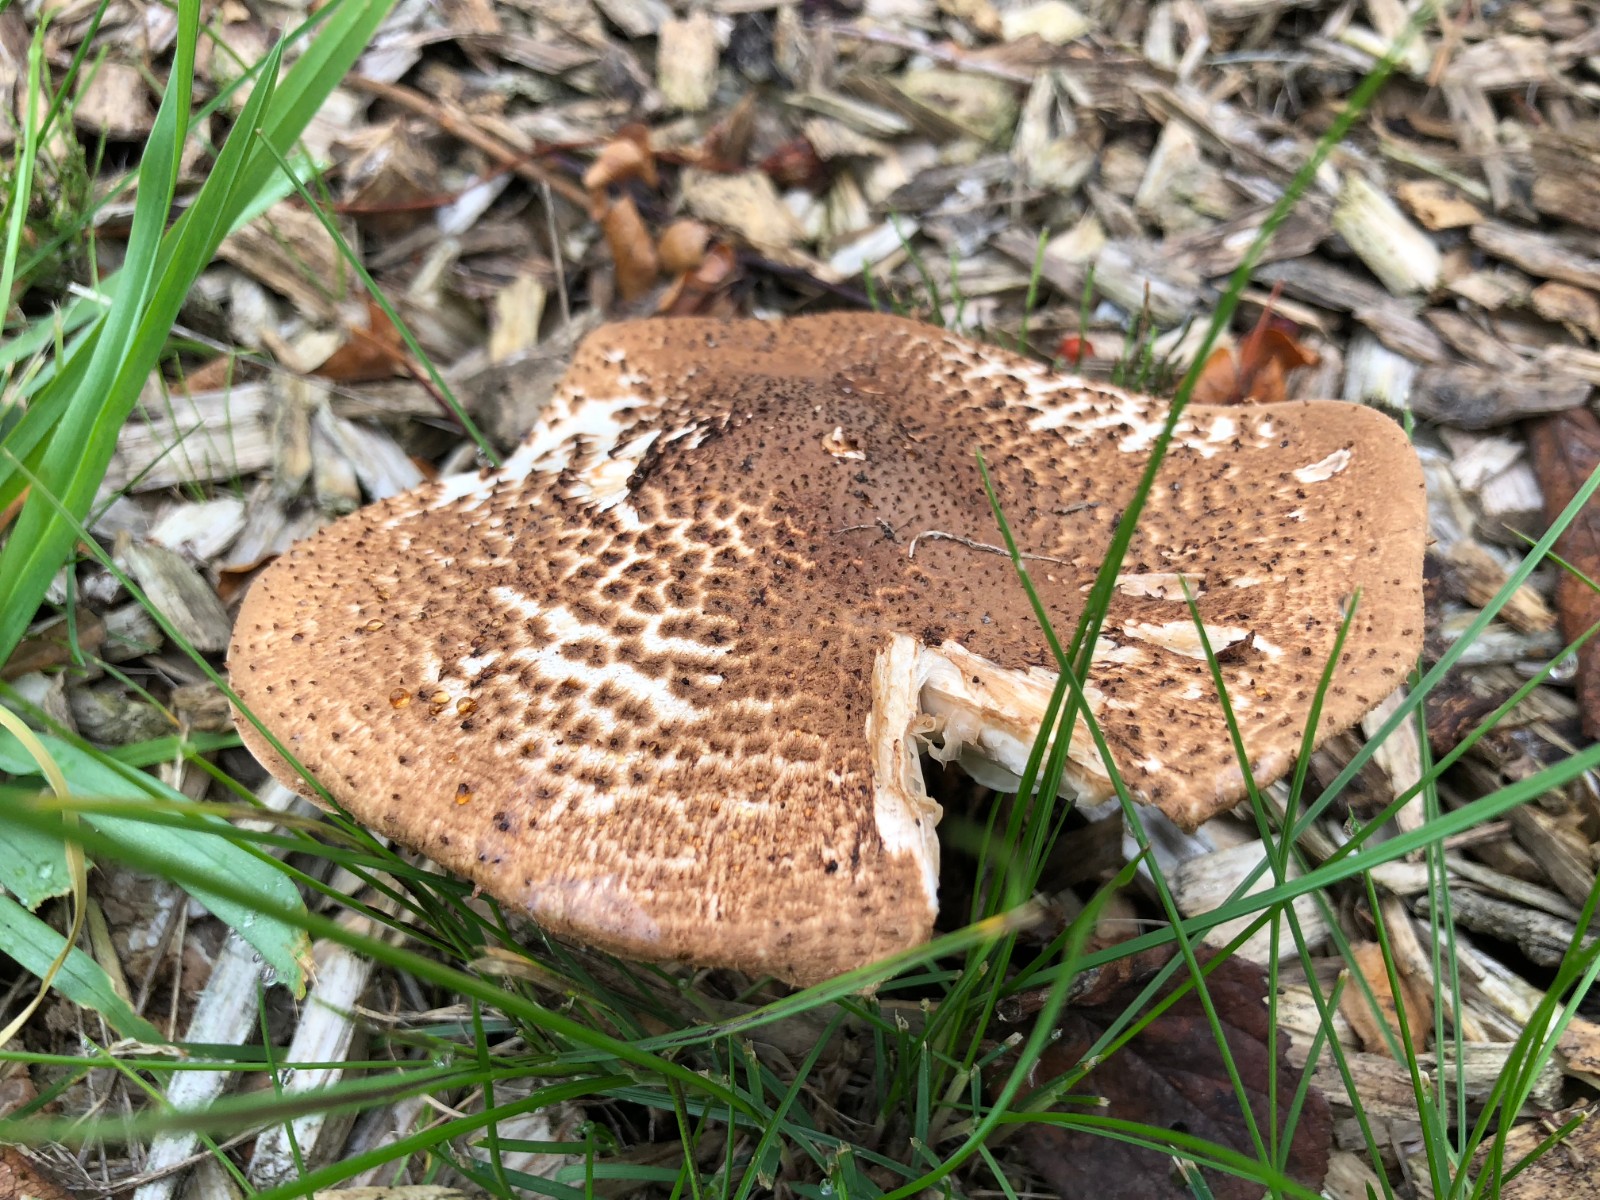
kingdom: Fungi
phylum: Basidiomycota
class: Agaricomycetes
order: Agaricales
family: Agaricaceae
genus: Echinoderma
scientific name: Echinoderma asperum
